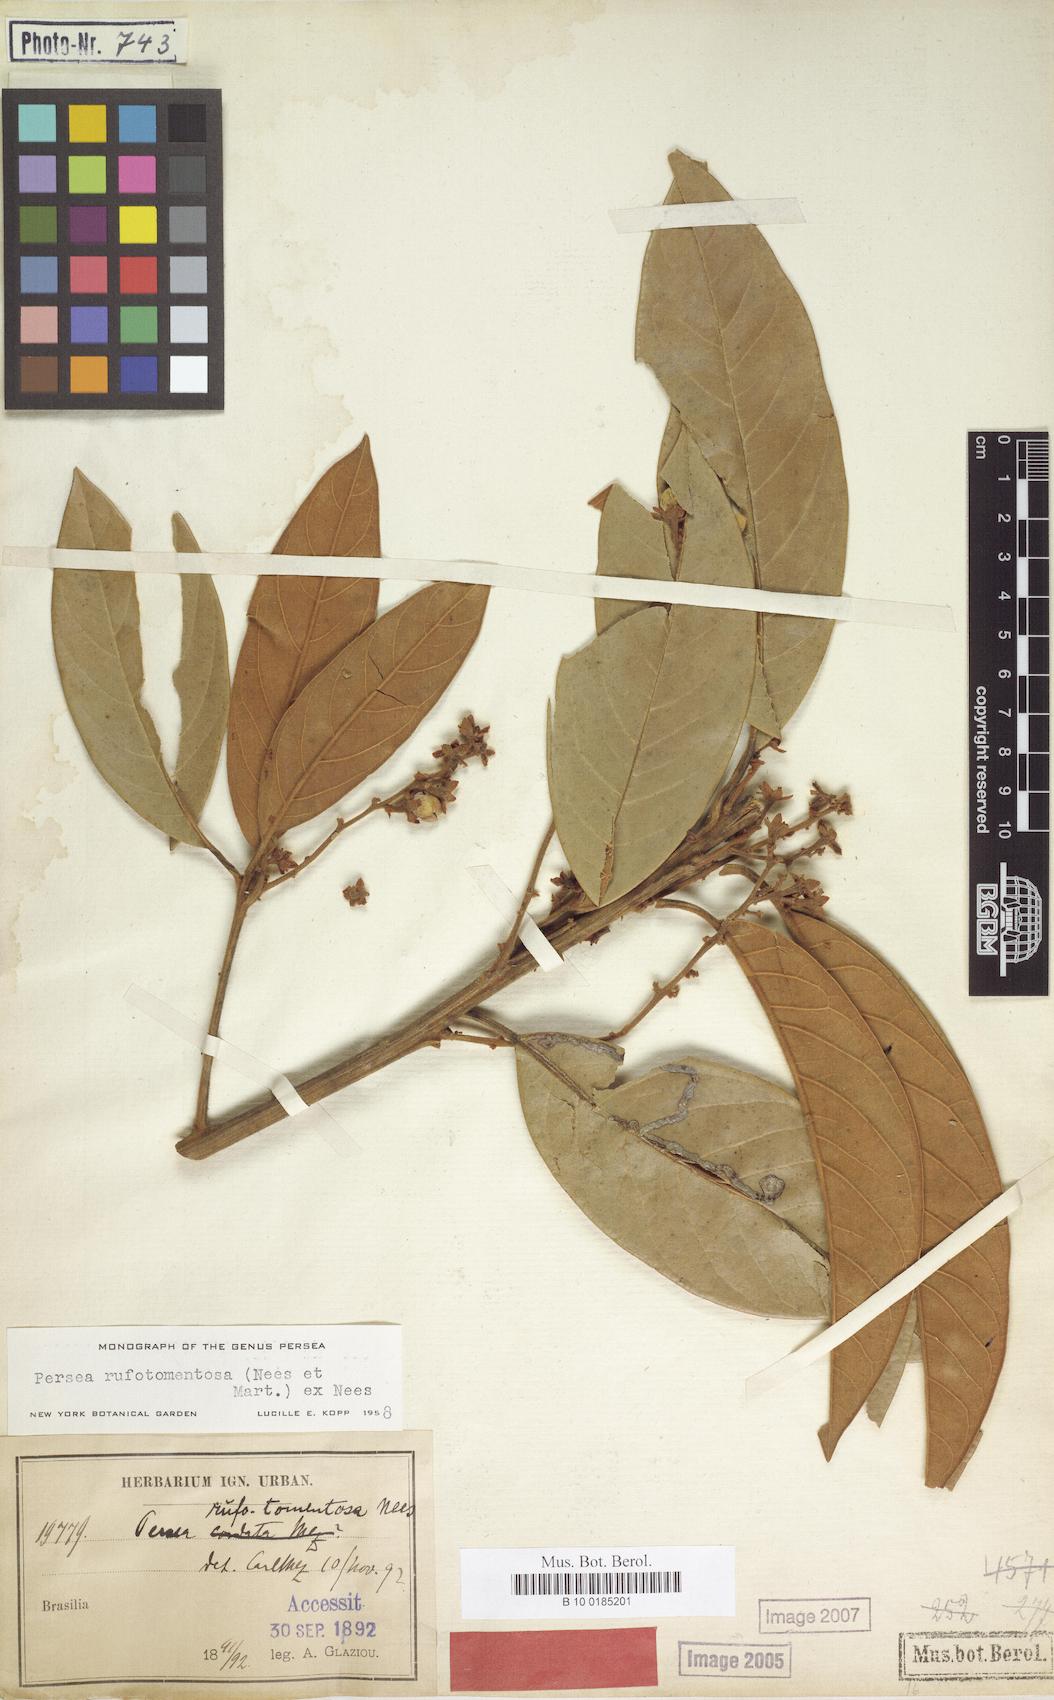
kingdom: Plantae
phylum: Tracheophyta
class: Magnoliopsida
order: Laurales
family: Lauraceae
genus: Persea
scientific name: Persea rufotomentosa
